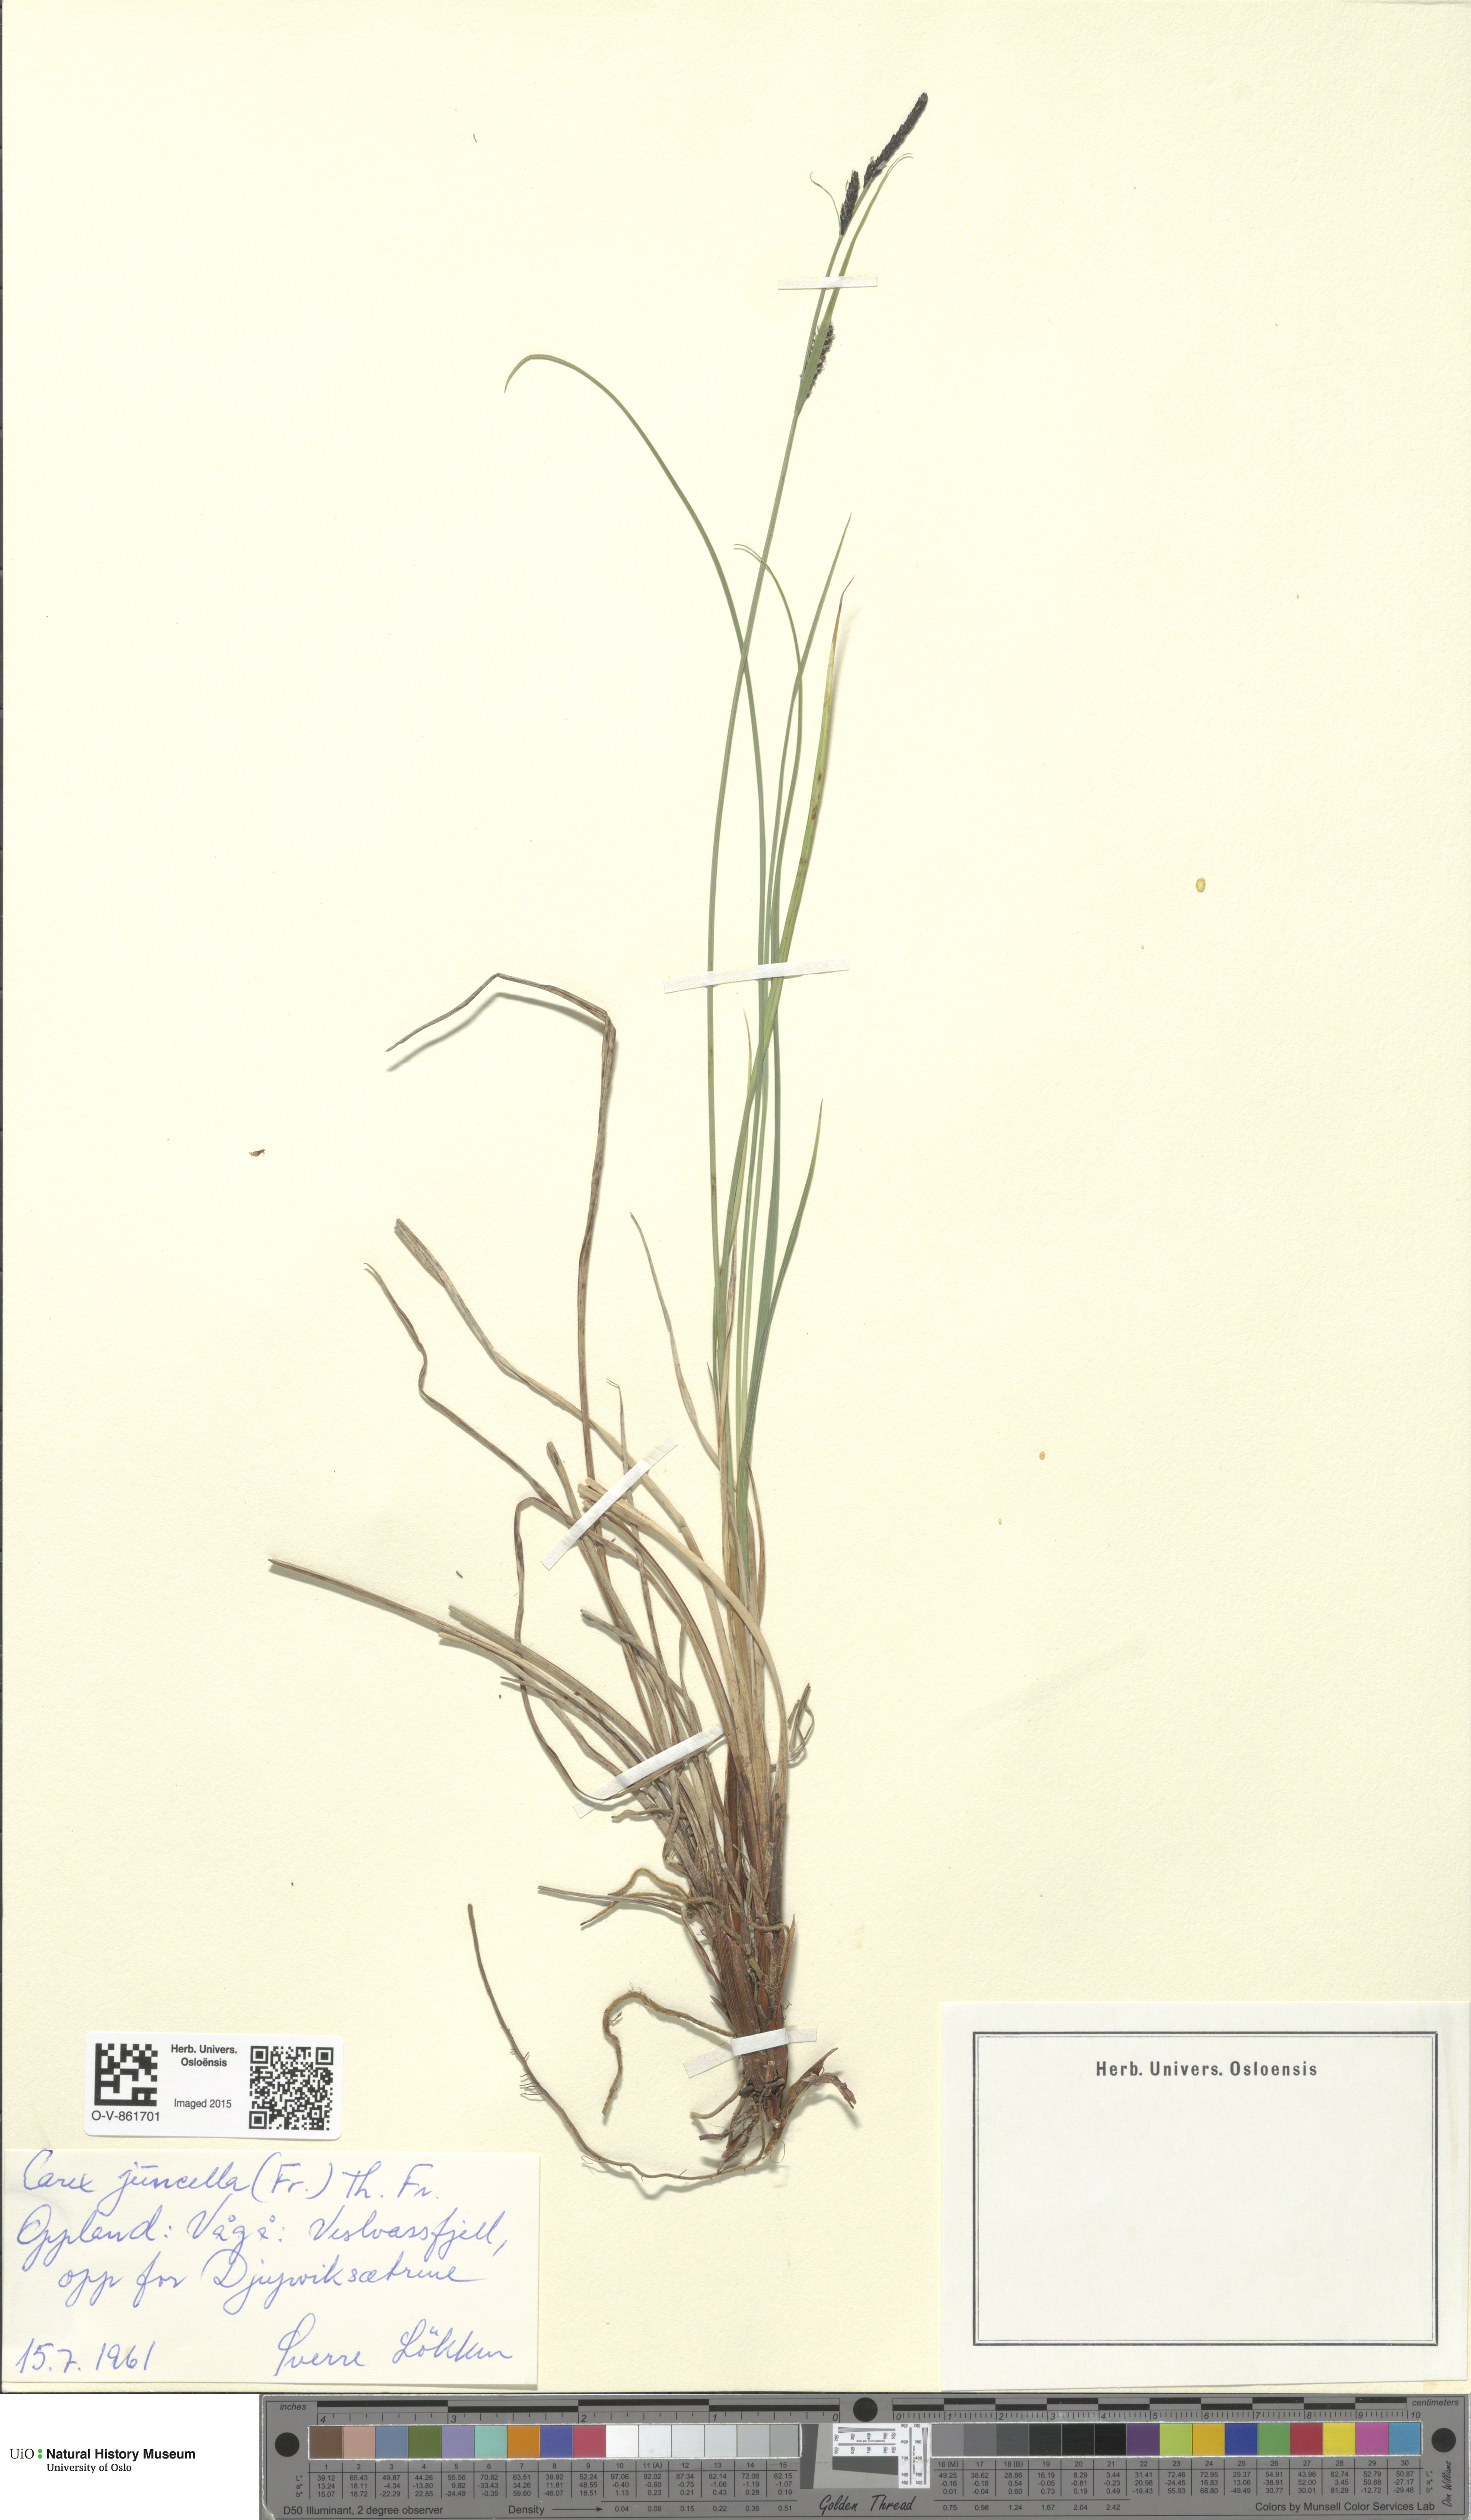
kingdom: Plantae
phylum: Tracheophyta
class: Liliopsida
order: Poales
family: Cyperaceae
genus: Carex
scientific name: Carex nigra
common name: Common sedge
